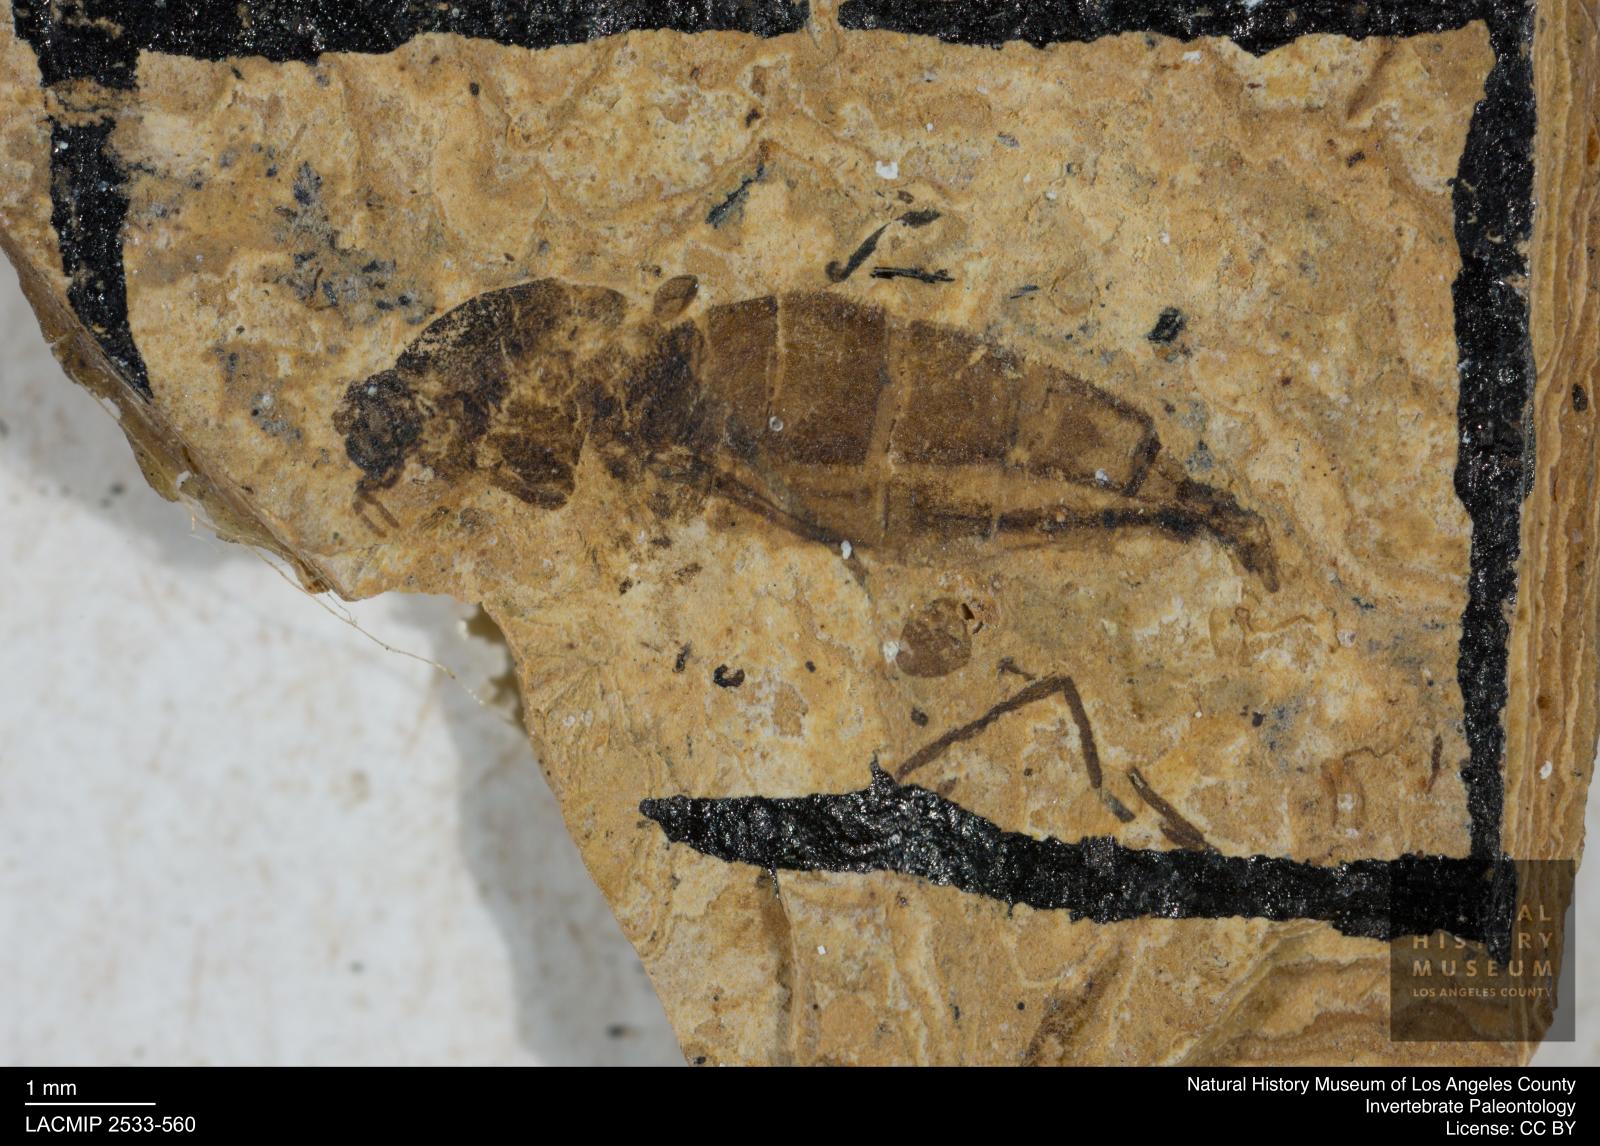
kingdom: Animalia
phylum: Arthropoda
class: Insecta
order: Diptera
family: Sciaridae
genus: Sciara
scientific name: Sciara aulica
